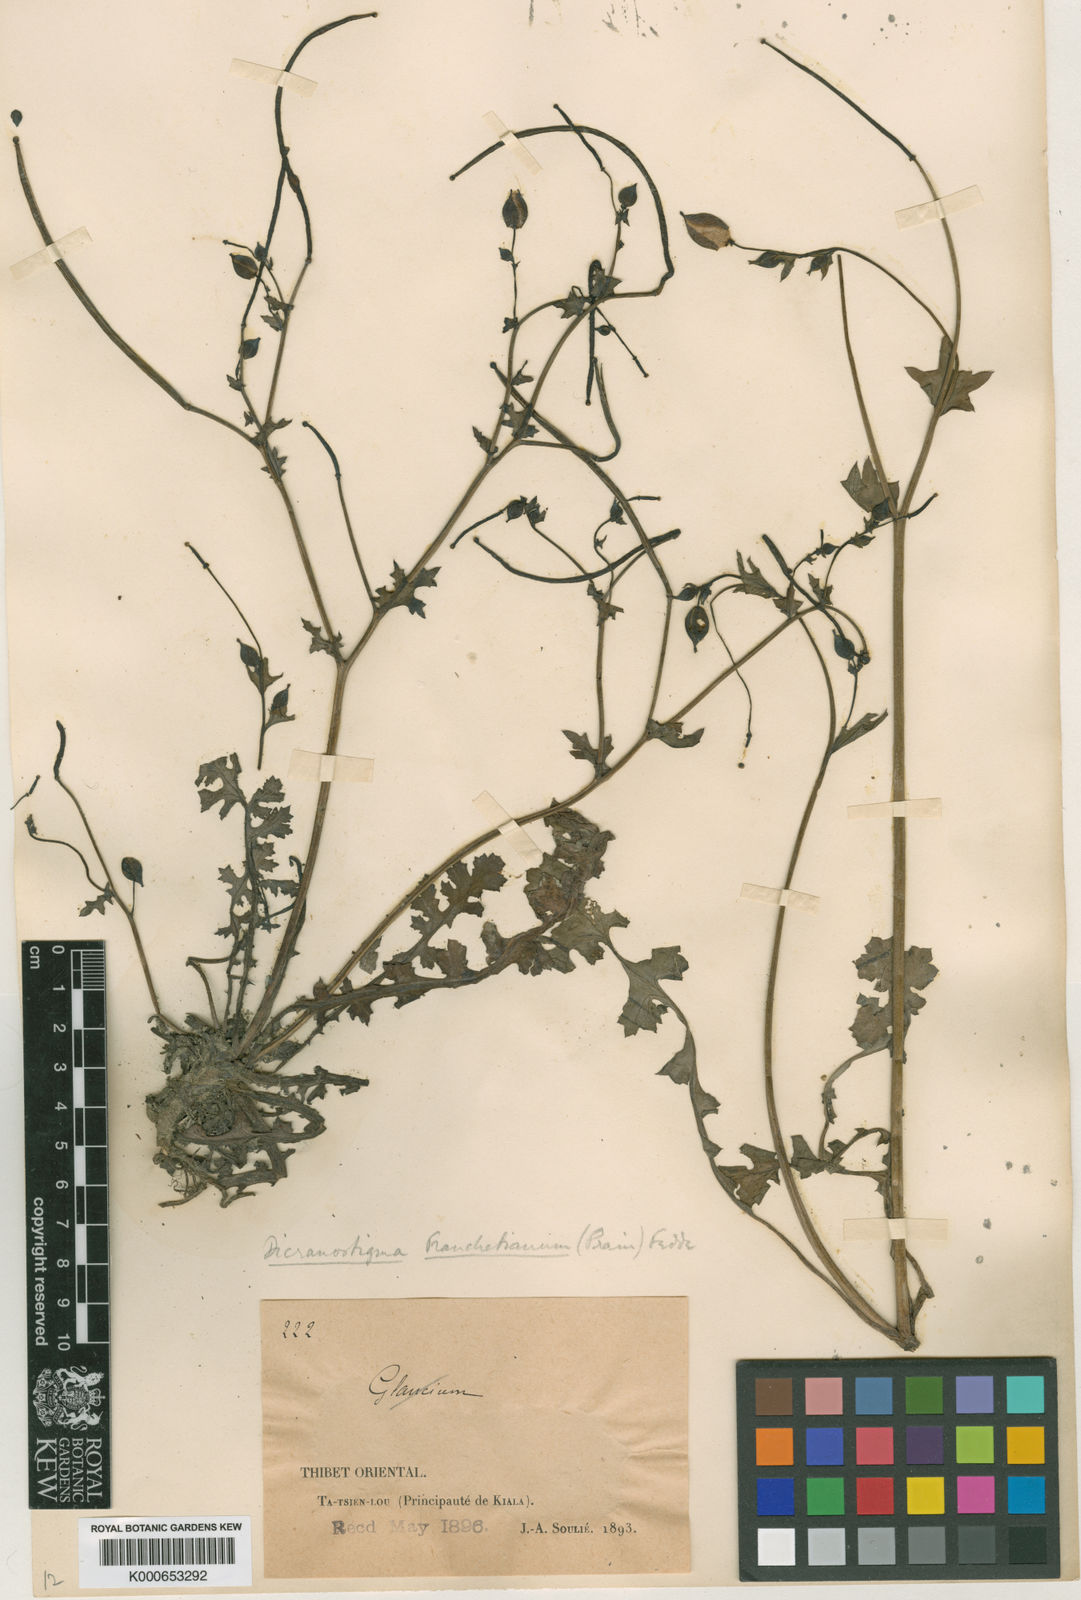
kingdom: Plantae
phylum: Tracheophyta
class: Magnoliopsida
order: Ranunculales
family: Papaveraceae
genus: Dicranostigma
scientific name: Dicranostigma leptopodum
